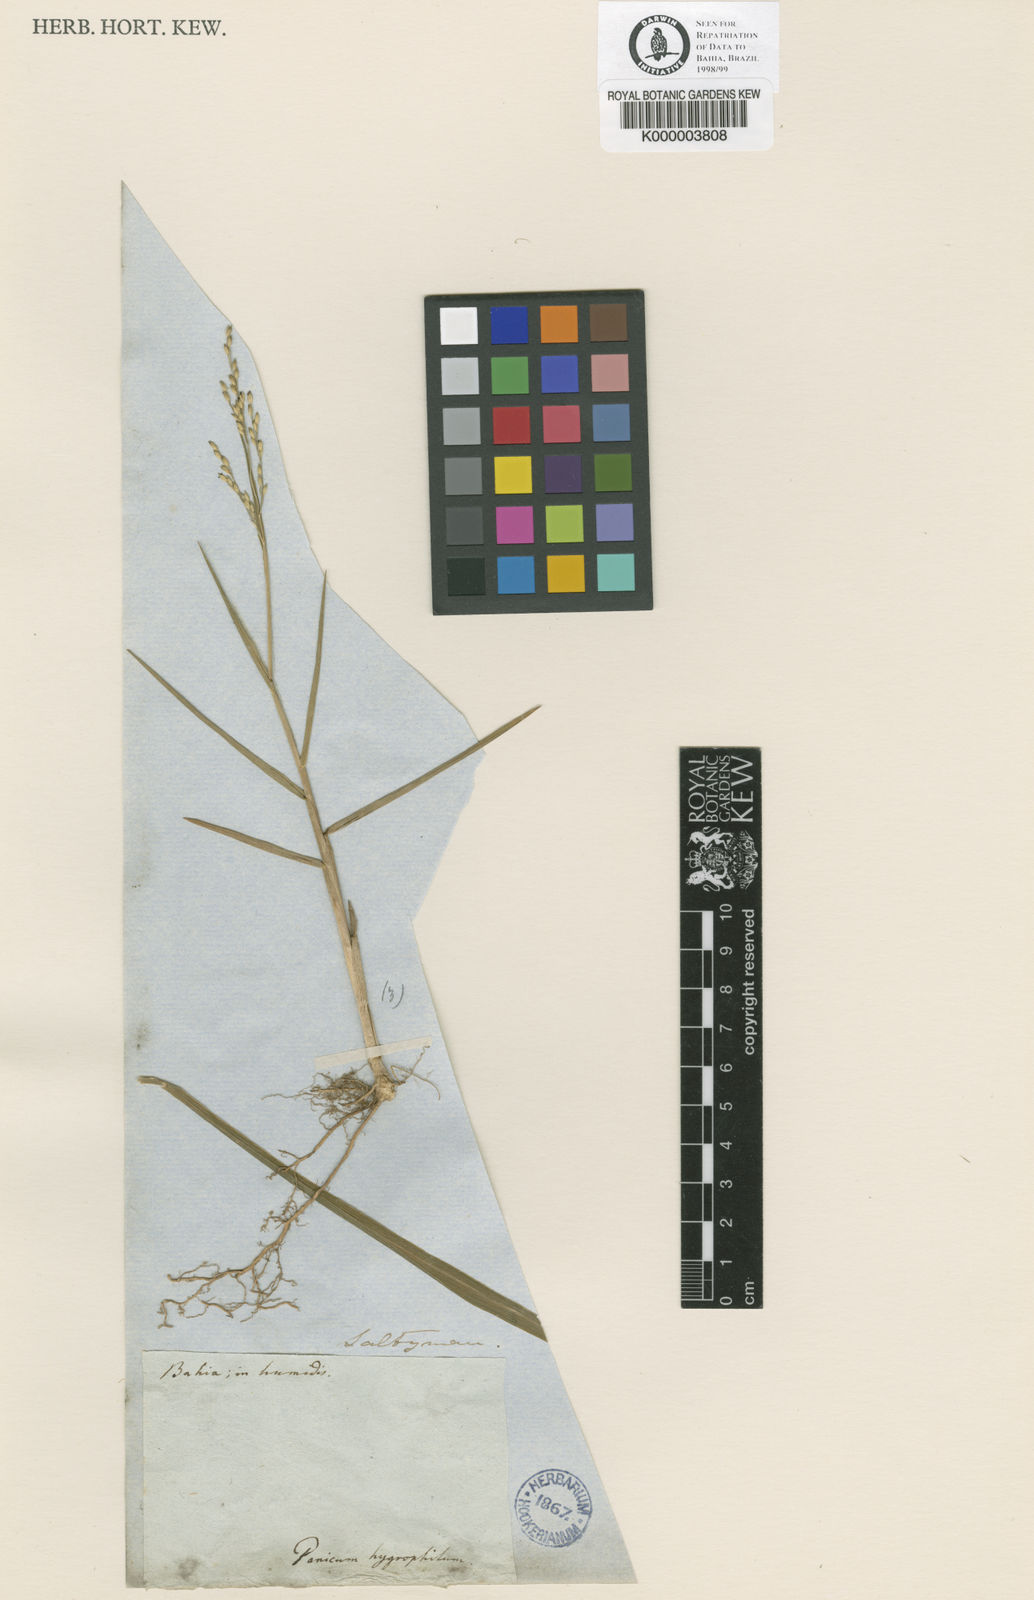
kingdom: Plantae
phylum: Tracheophyta
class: Liliopsida
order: Poales
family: Poaceae
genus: Panicum
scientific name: Panicum dichotomiflorum
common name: Autumn millet
